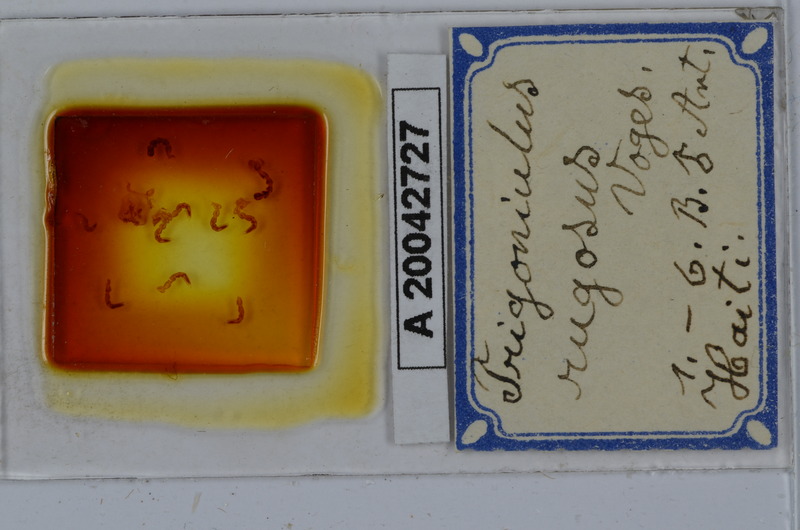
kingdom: Animalia
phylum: Arthropoda
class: Diplopoda
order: Spirobolida
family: Pachybolidae
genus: Trigoniulus
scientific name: Trigoniulus corallinus
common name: Millipede
